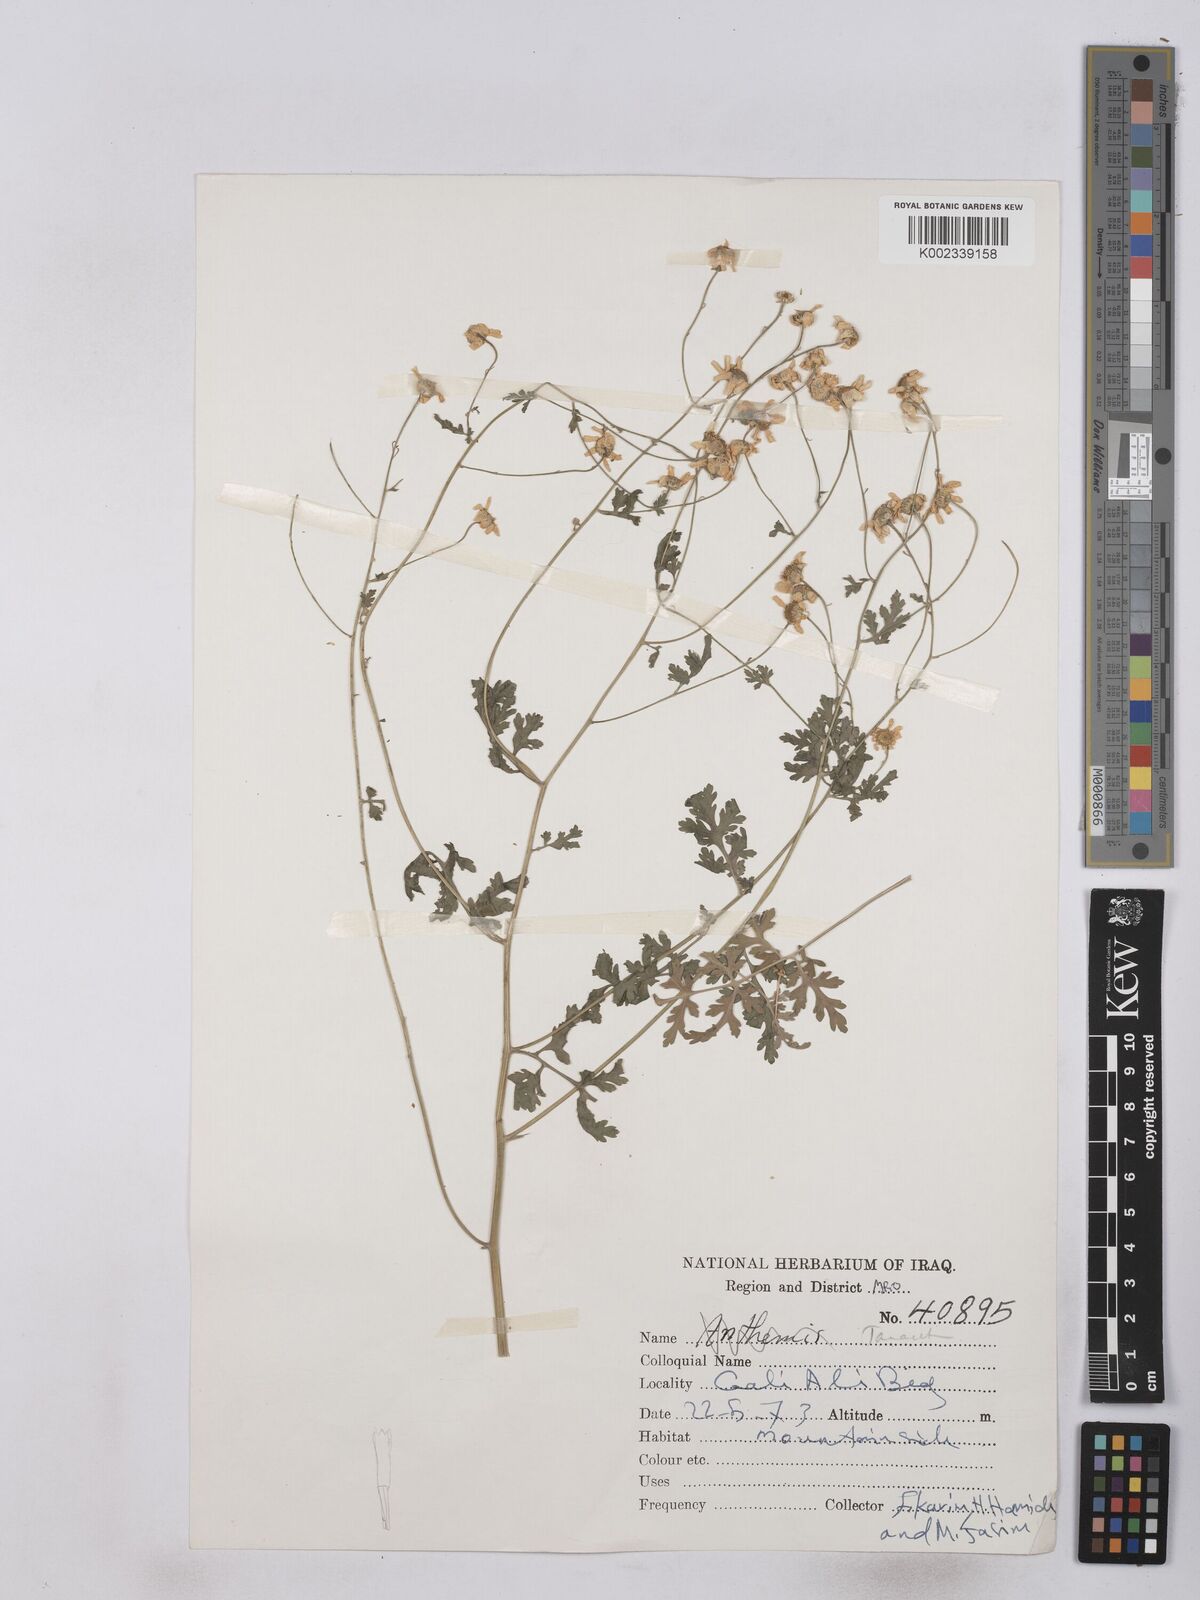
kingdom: Plantae
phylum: Tracheophyta
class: Magnoliopsida
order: Asterales
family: Asteraceae
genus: Tanacetum
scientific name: Tanacetum partheniifolium
